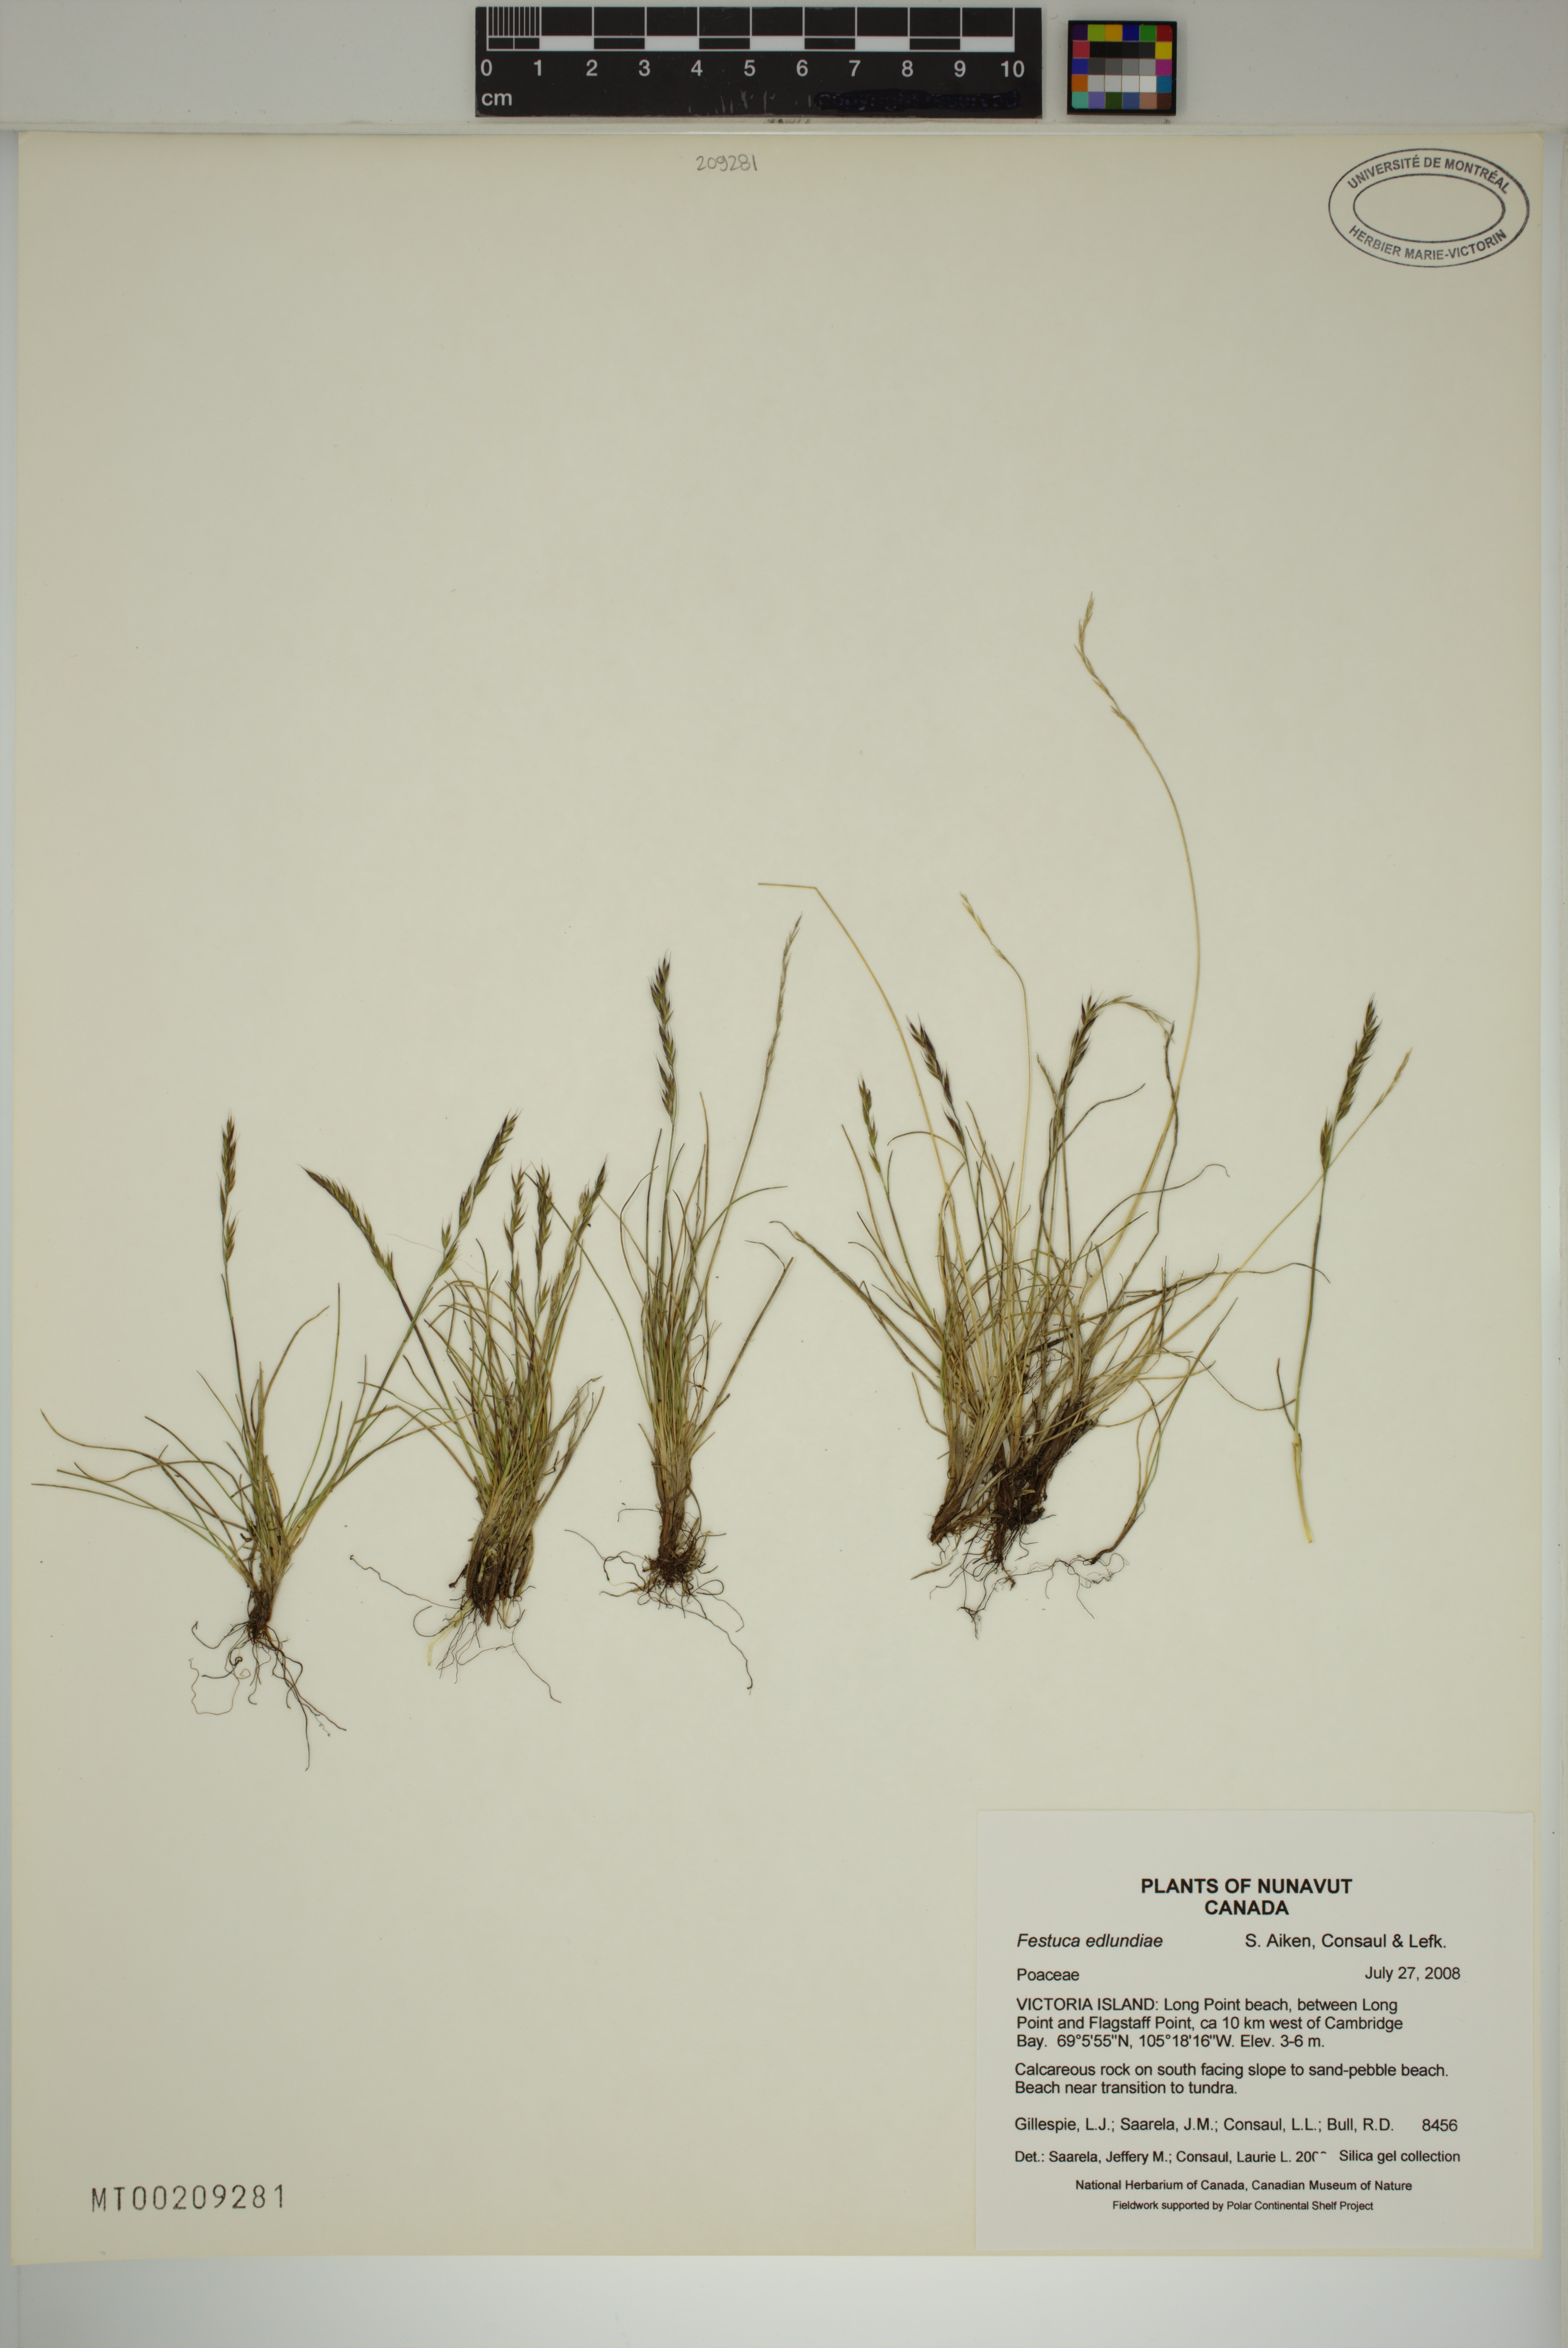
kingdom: Plantae
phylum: Tracheophyta
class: Liliopsida
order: Poales
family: Poaceae
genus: Festuca
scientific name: Festuca edlundiae
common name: Edlund's fescue
